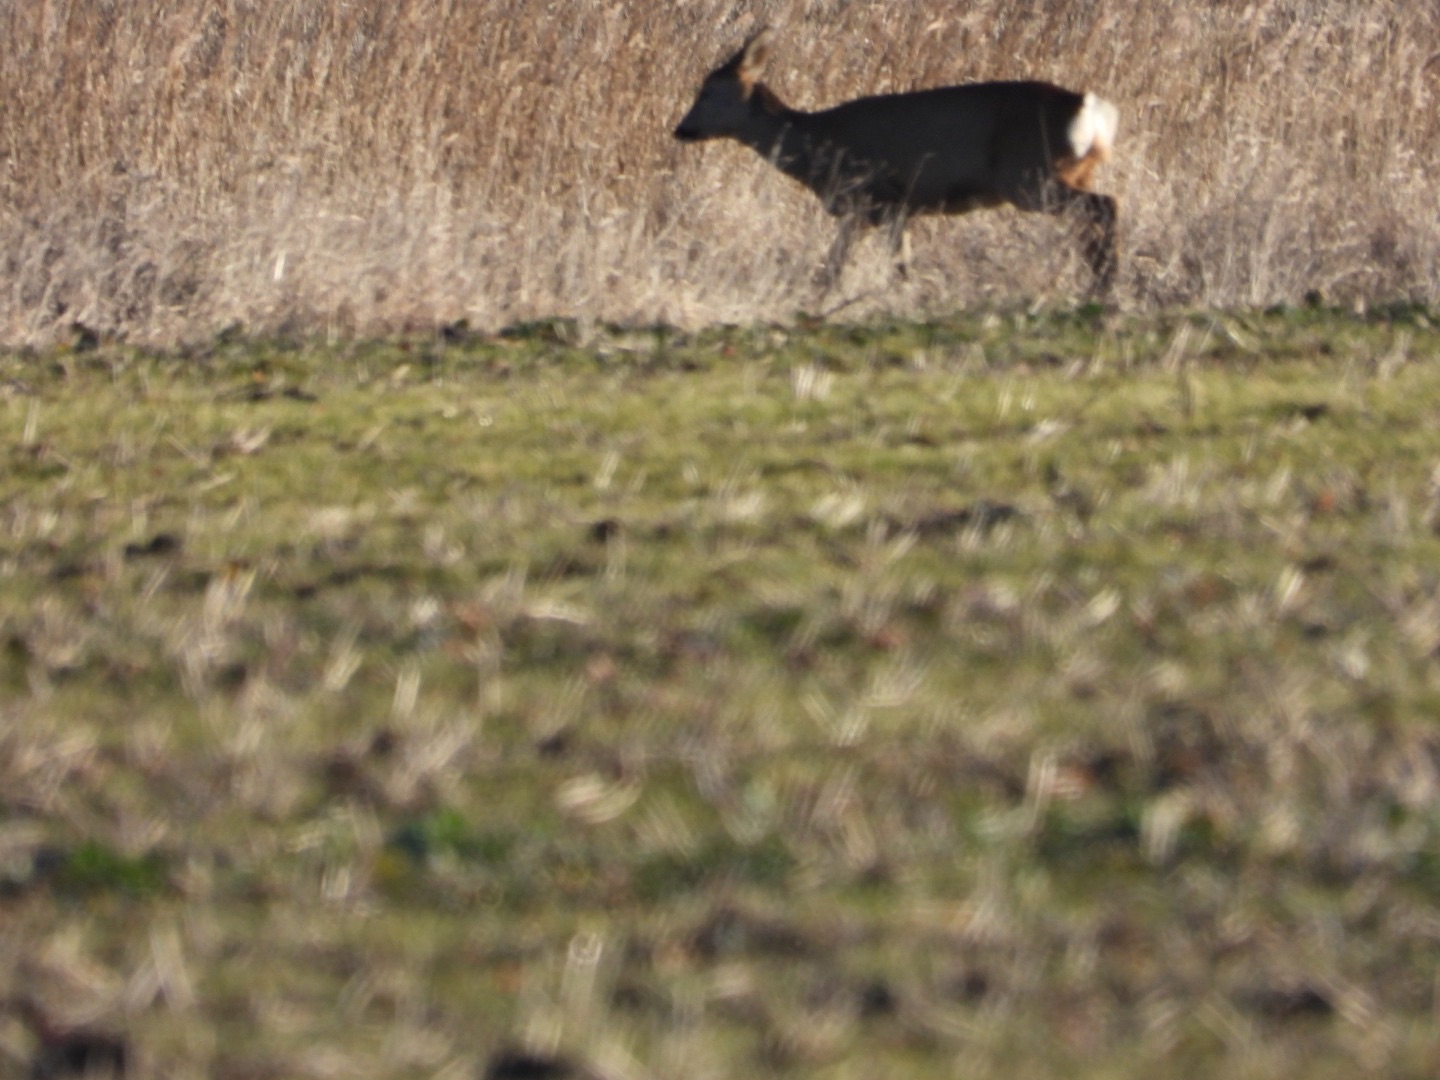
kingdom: Animalia
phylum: Chordata
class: Mammalia
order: Artiodactyla
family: Cervidae
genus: Capreolus
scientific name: Capreolus capreolus
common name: Rådyr
